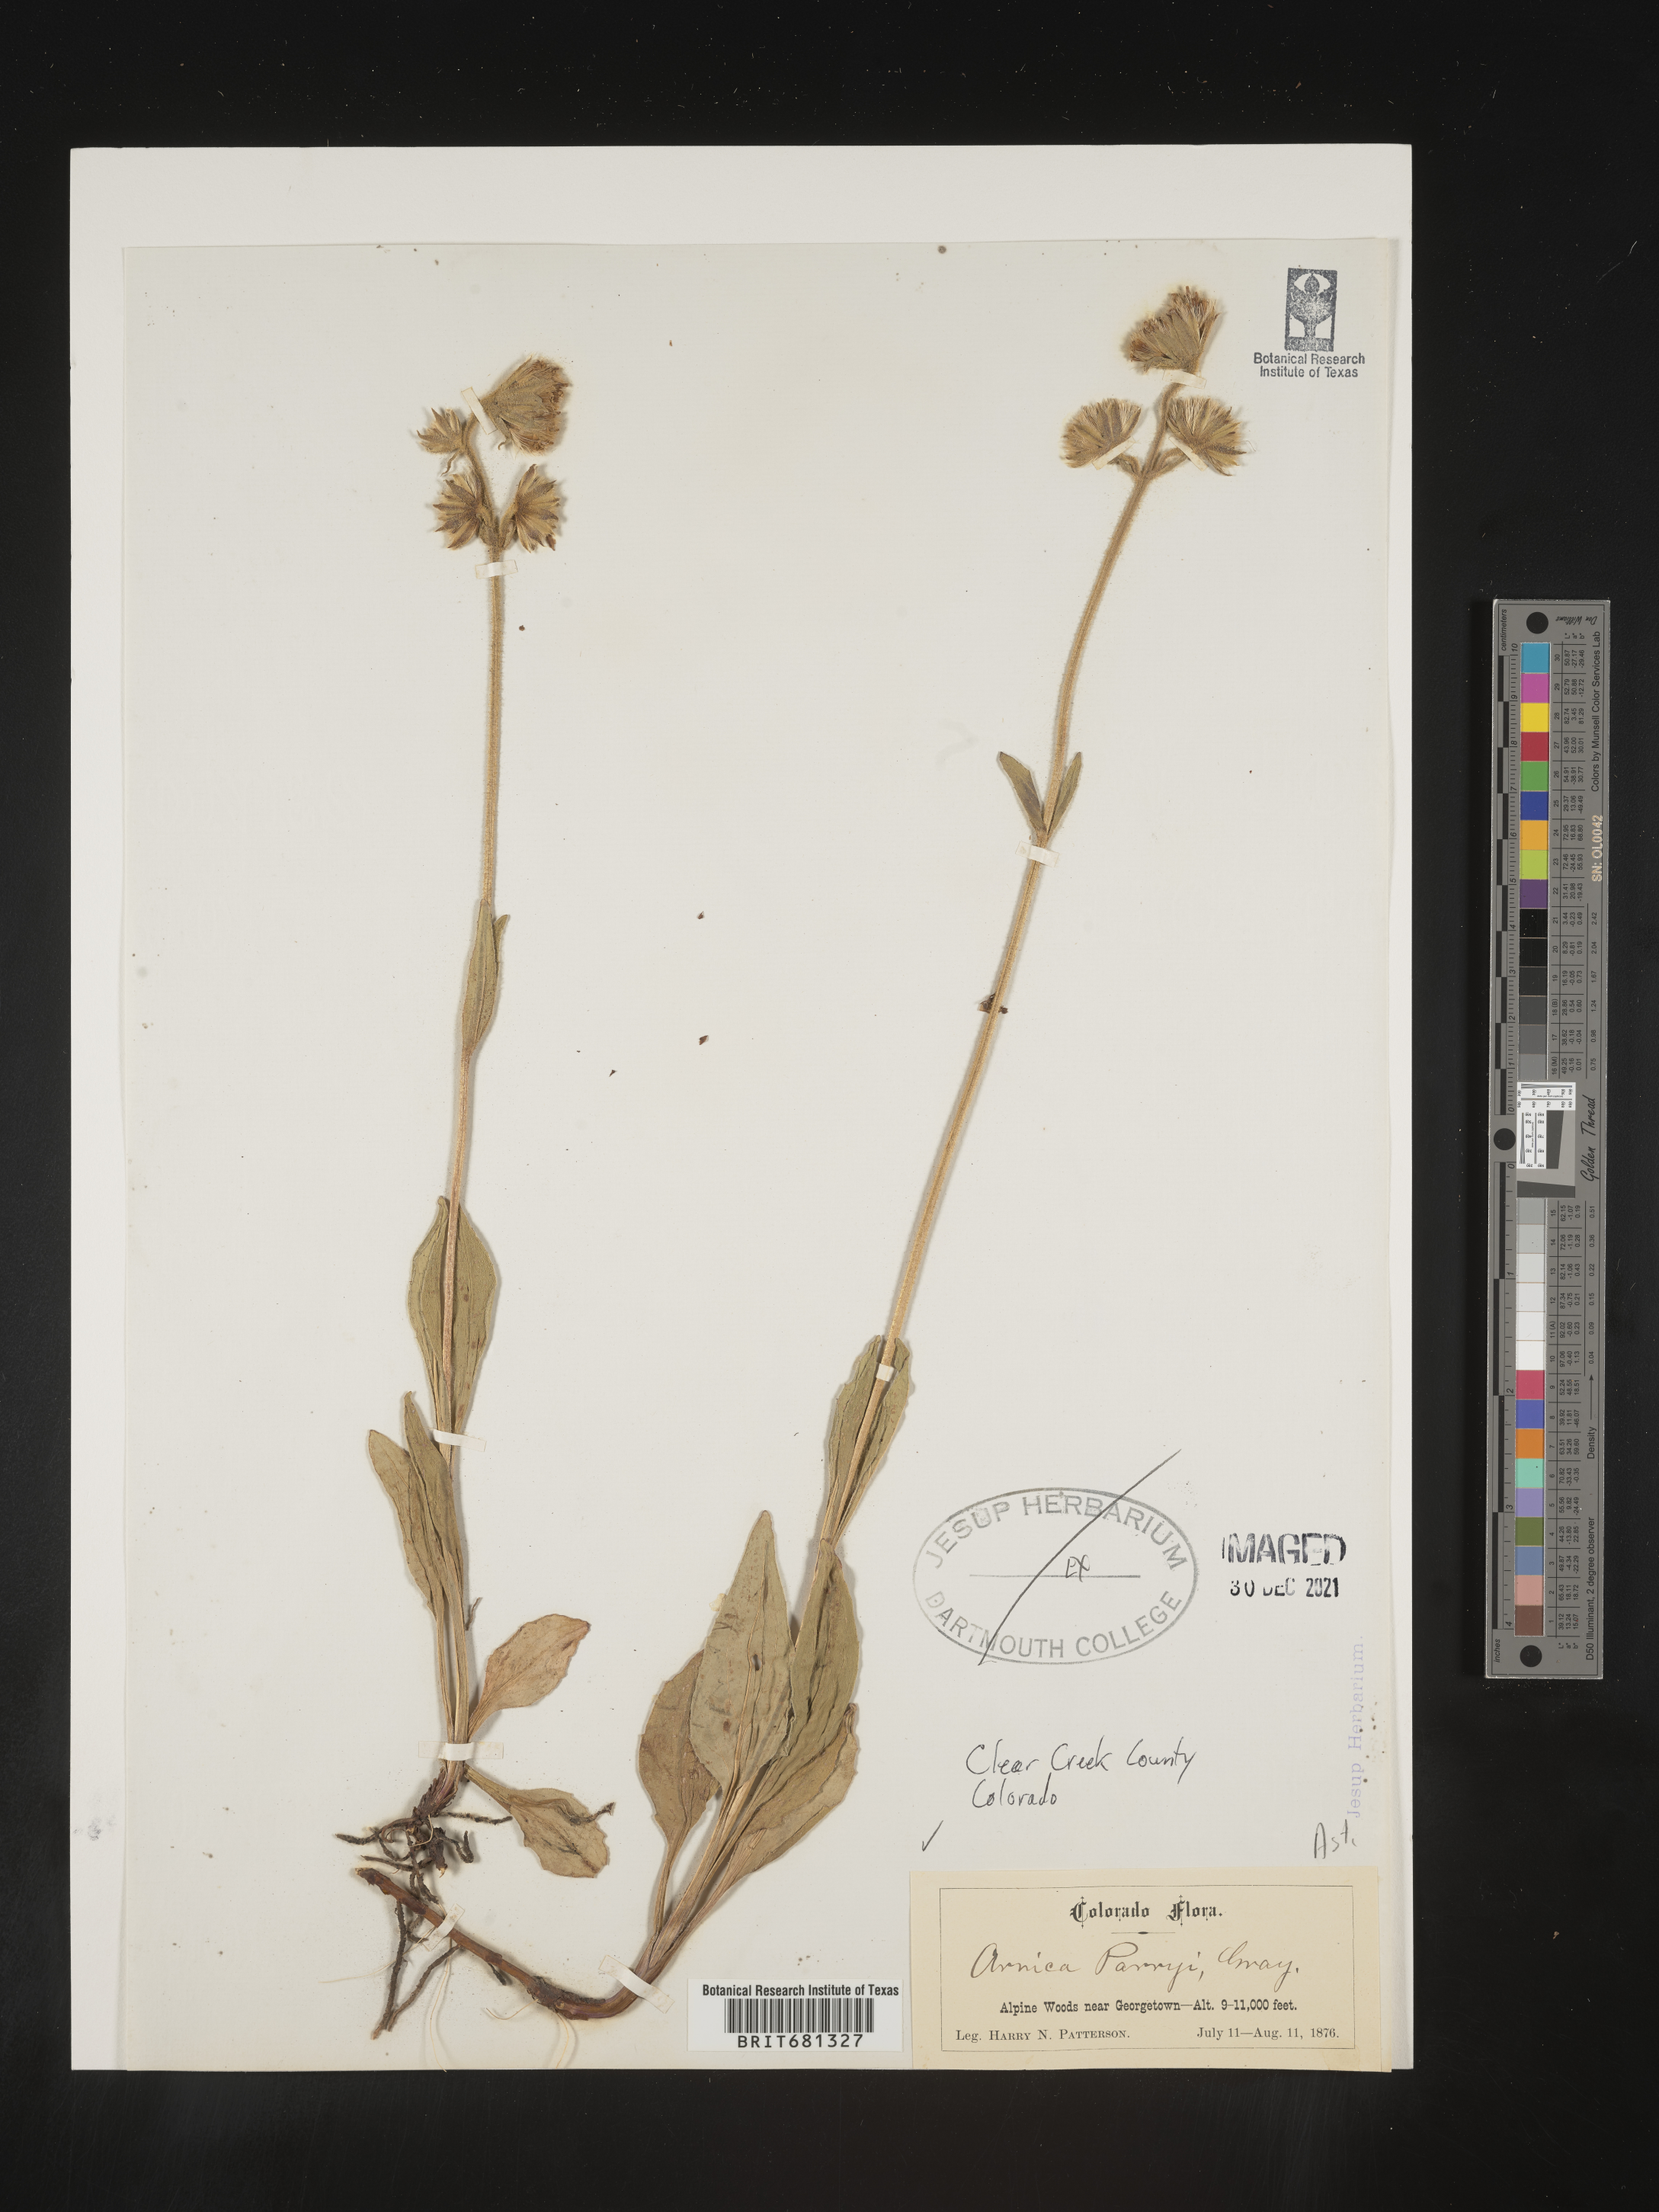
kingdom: Plantae
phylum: Tracheophyta
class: Magnoliopsida
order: Asterales
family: Asteraceae
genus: Arnica
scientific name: Arnica parryi
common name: Parry's arnica
